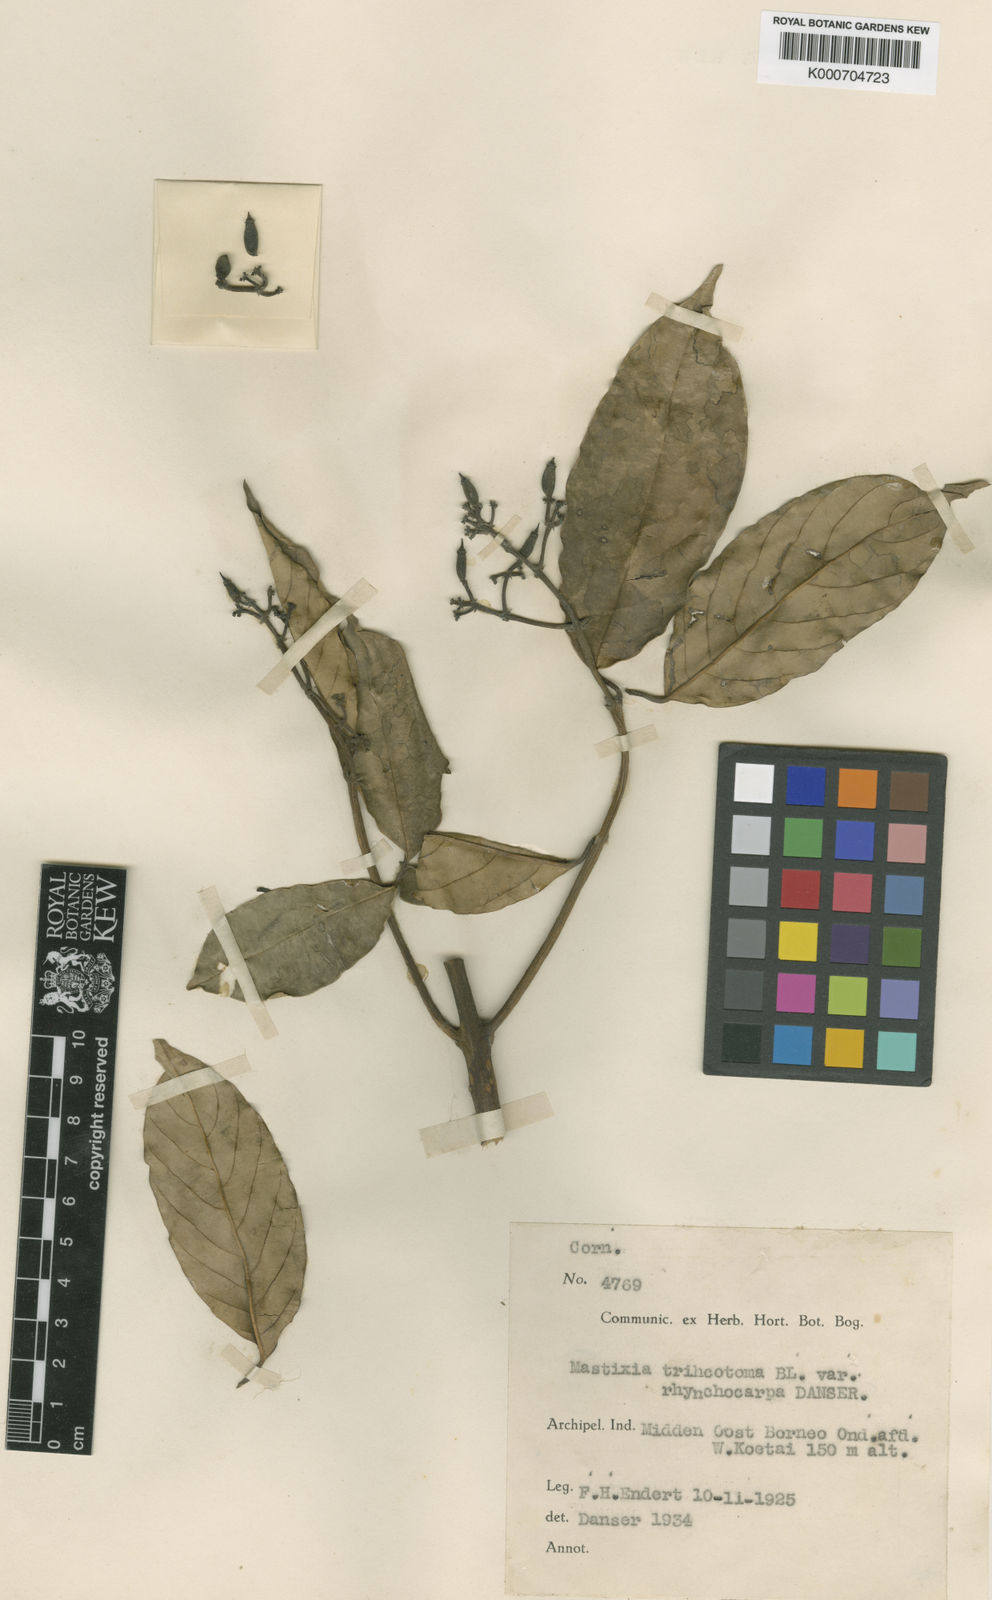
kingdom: Plantae
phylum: Tracheophyta
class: Magnoliopsida
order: Cornales
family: Nyssaceae
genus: Mastixia
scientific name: Mastixia trichotoma
